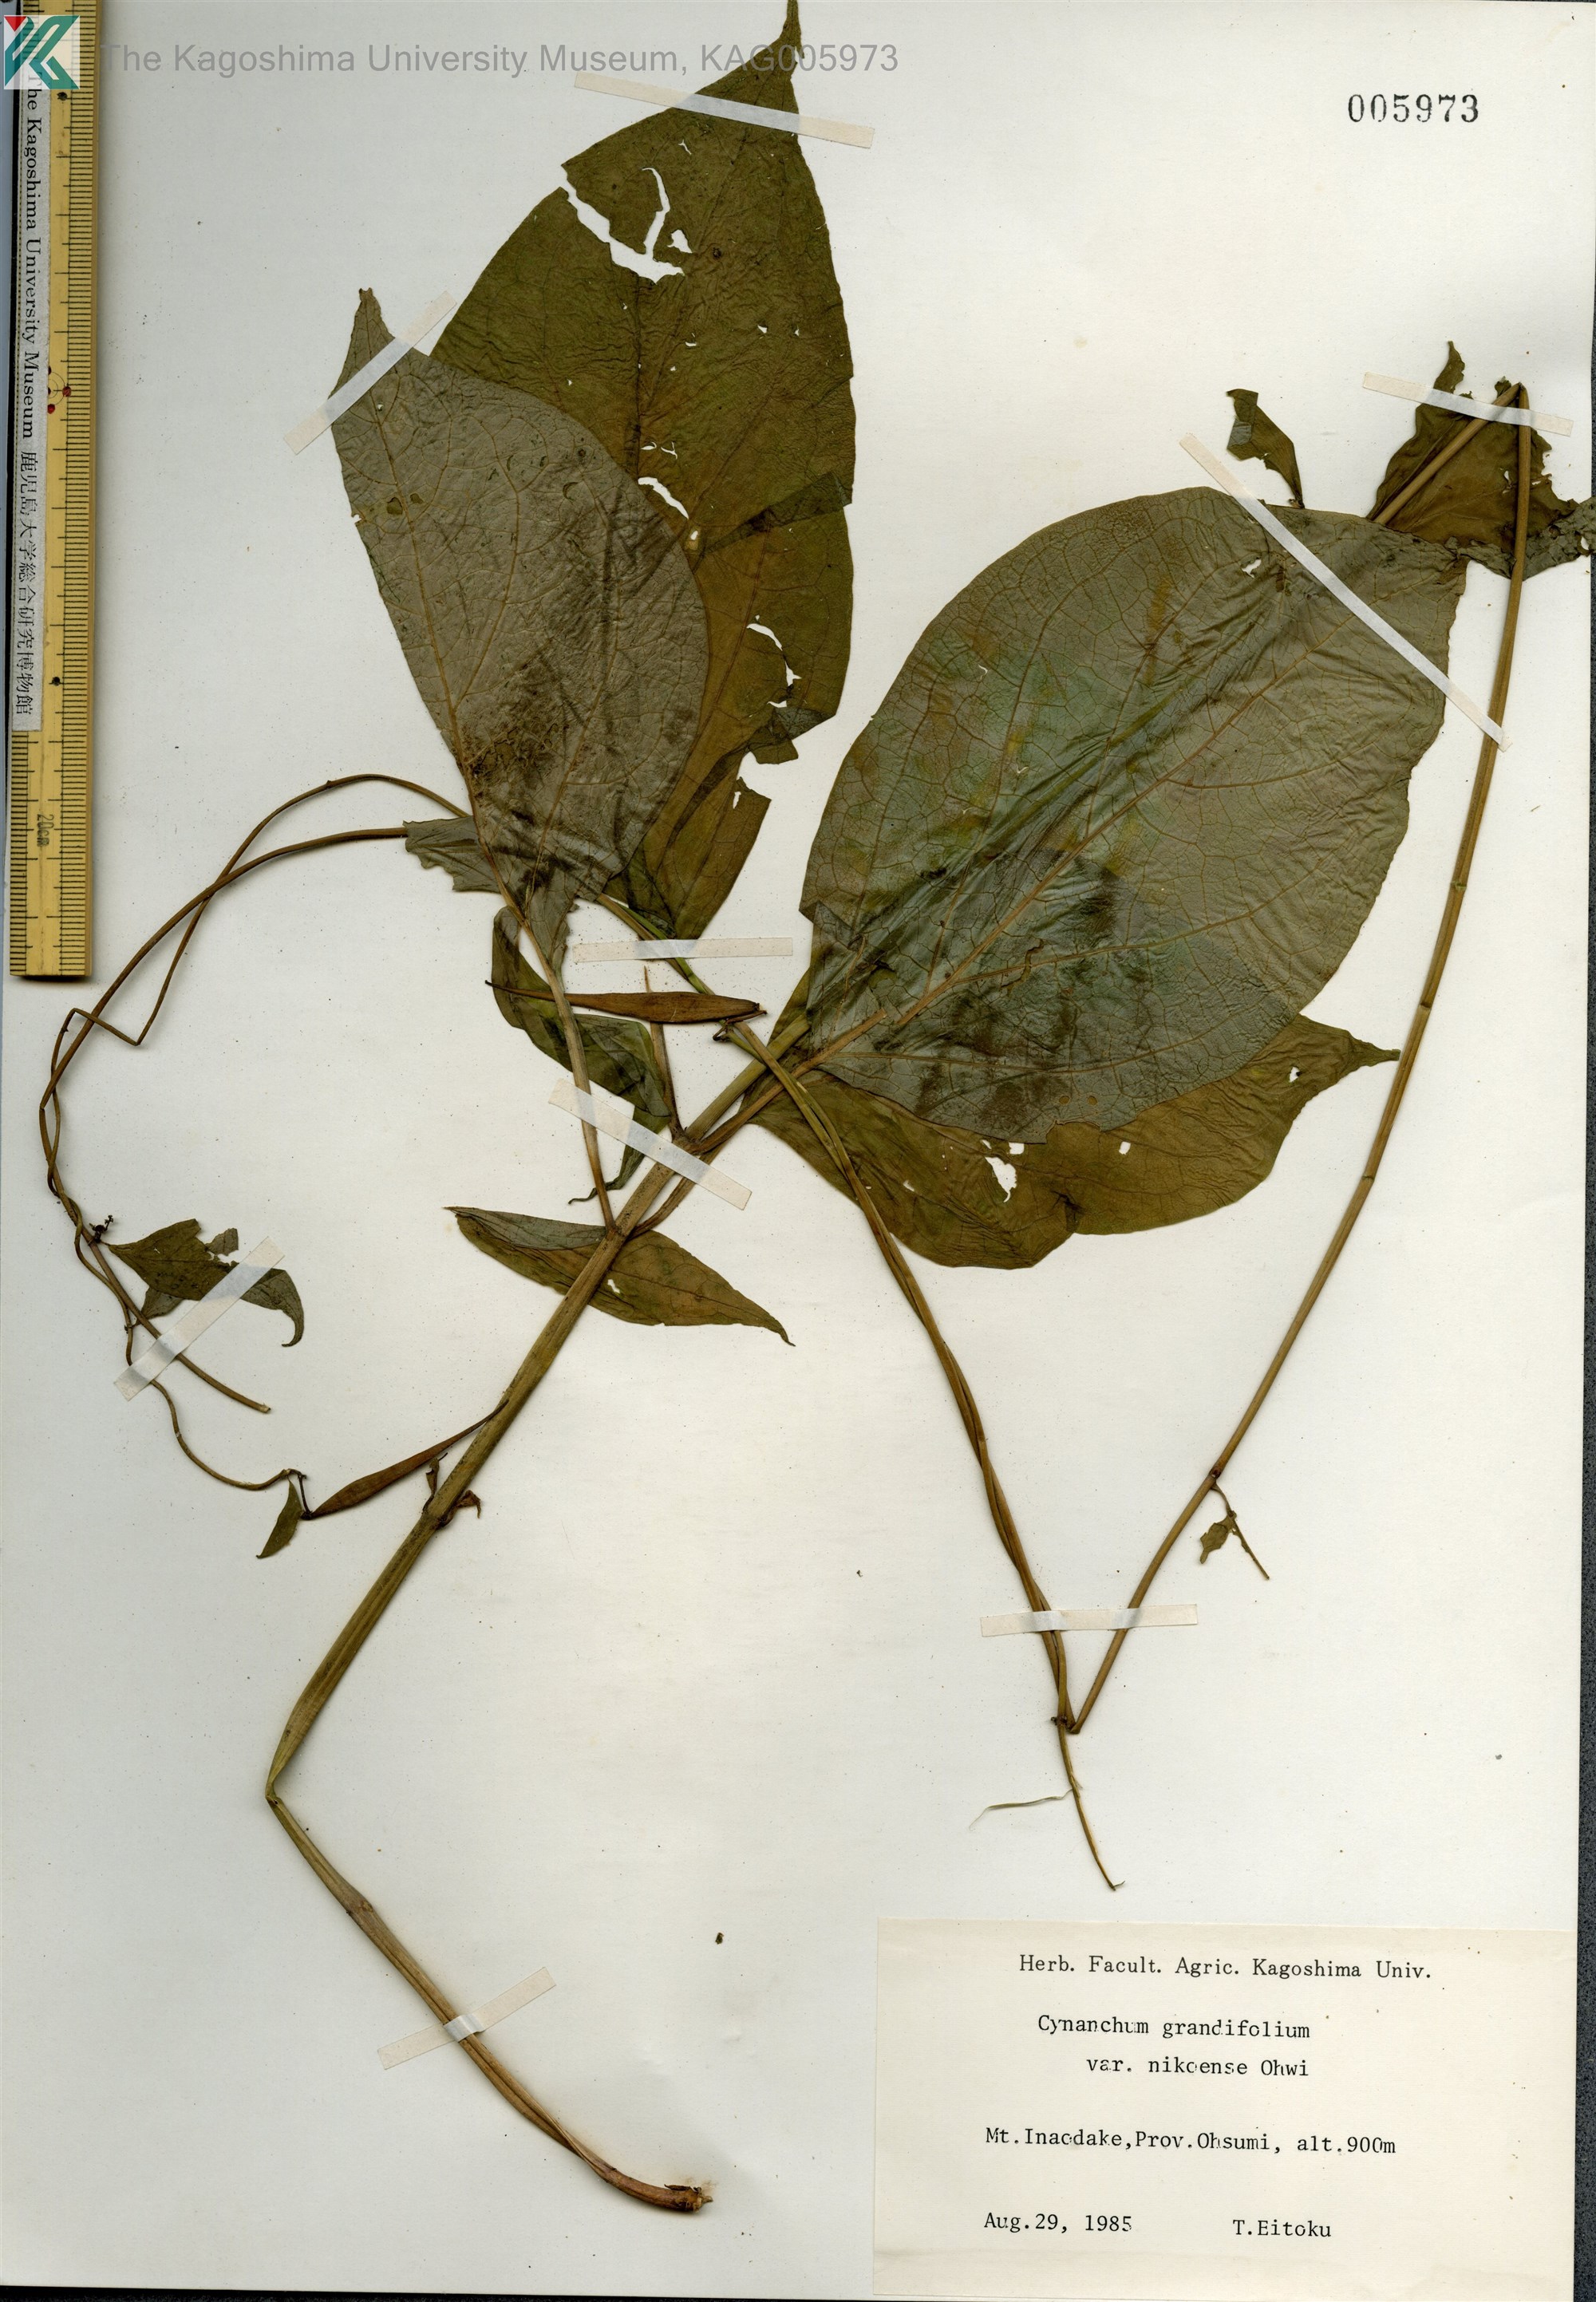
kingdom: Plantae
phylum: Tracheophyta
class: Magnoliopsida
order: Gentianales
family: Apocynaceae
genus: Vincetoxicum
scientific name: Vincetoxicum inamoenum
